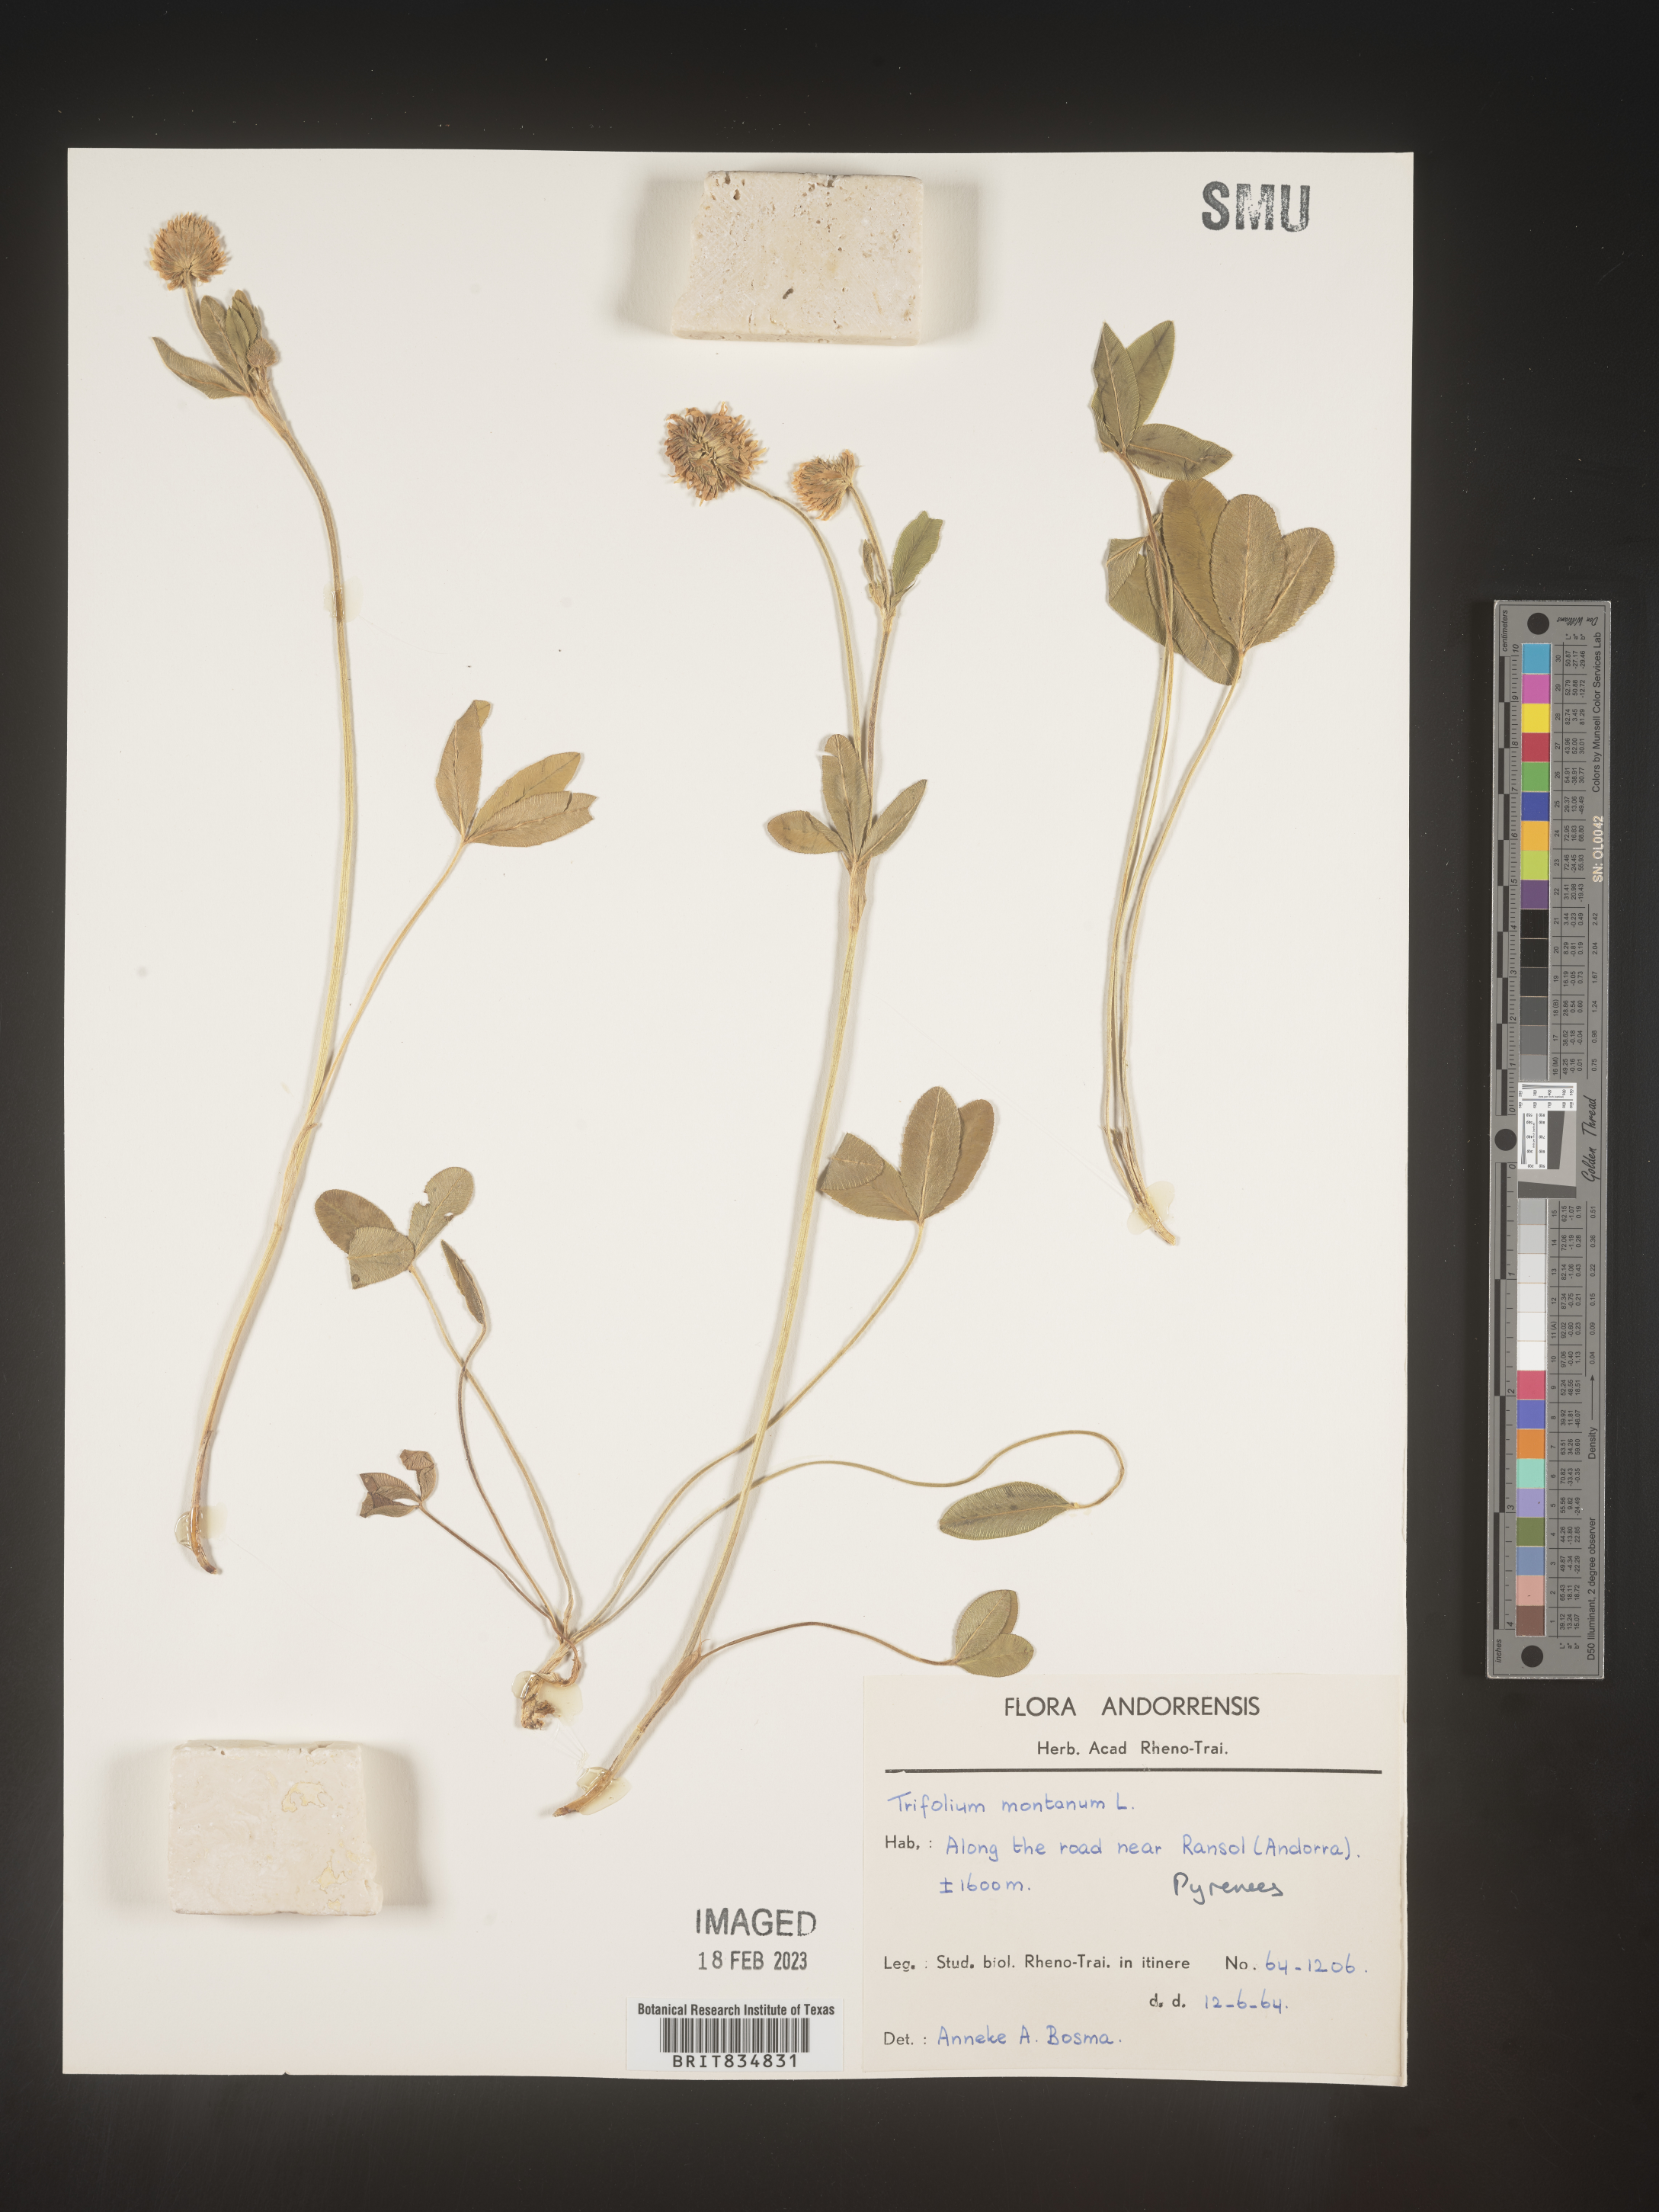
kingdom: Plantae
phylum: Tracheophyta
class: Magnoliopsida
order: Fabales
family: Fabaceae
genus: Trifolium
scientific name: Trifolium
